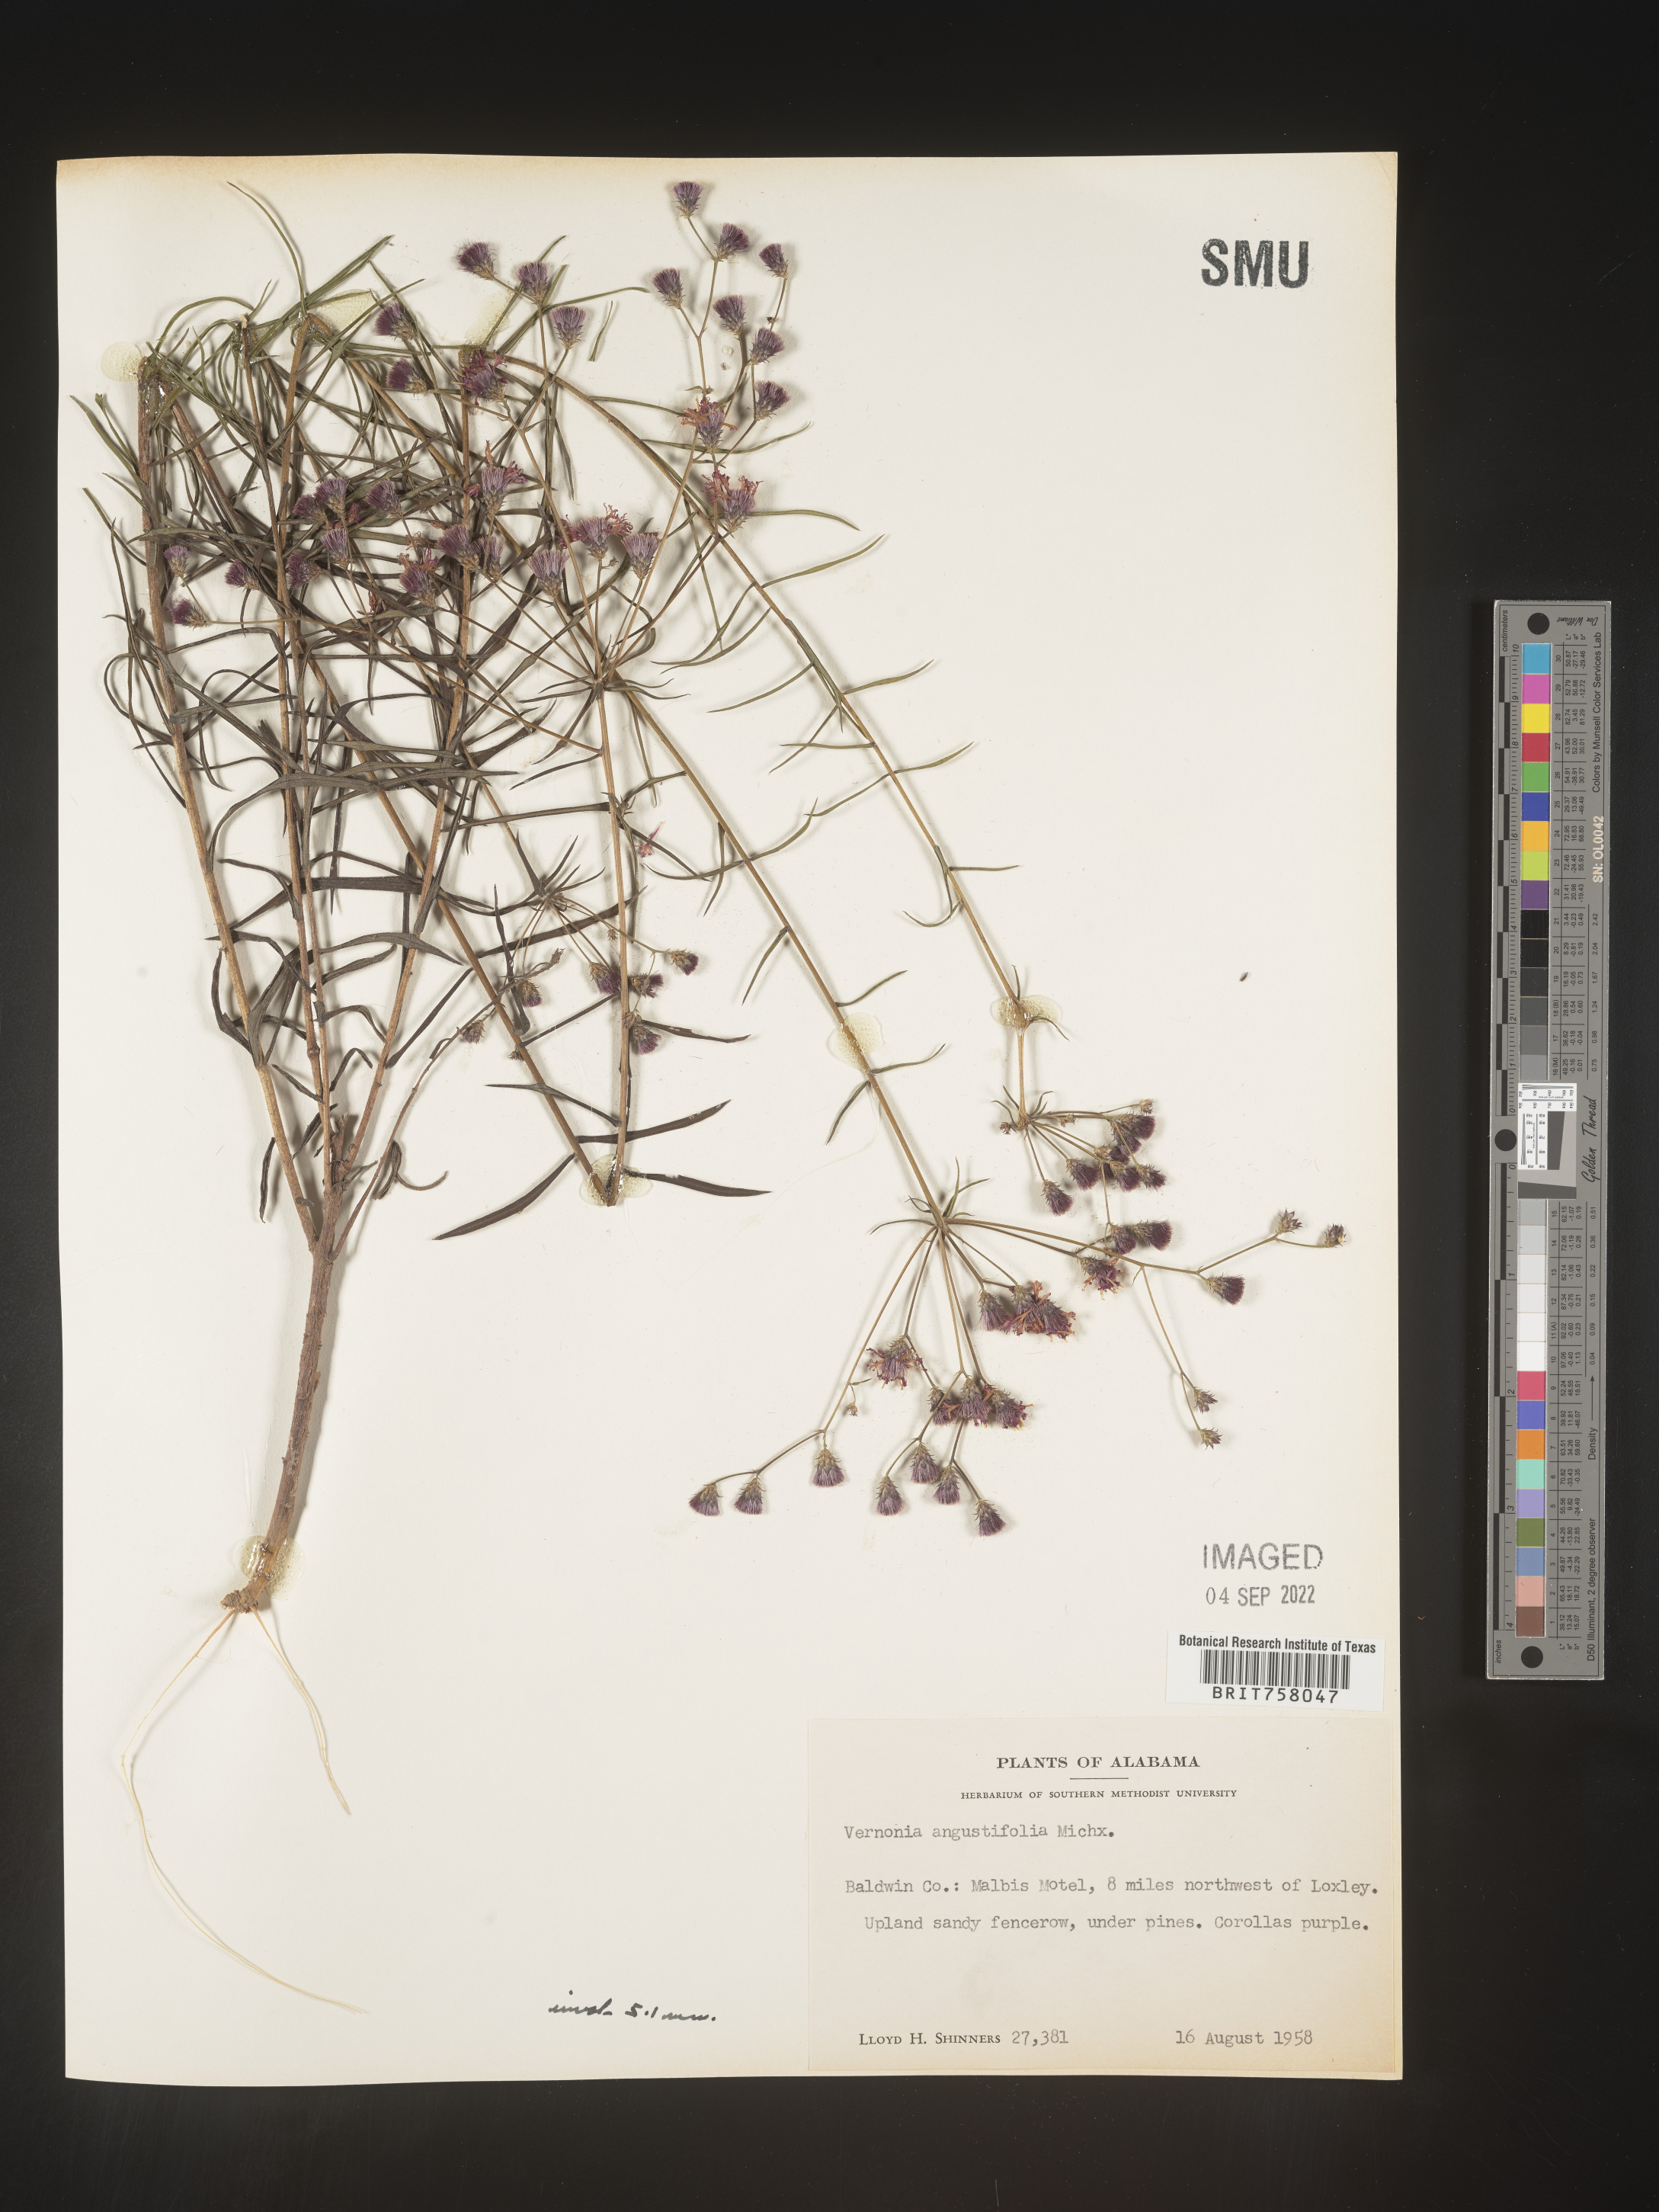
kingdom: Plantae
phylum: Tracheophyta
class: Magnoliopsida
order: Asterales
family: Asteraceae
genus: Vernonia
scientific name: Vernonia angustifolia
